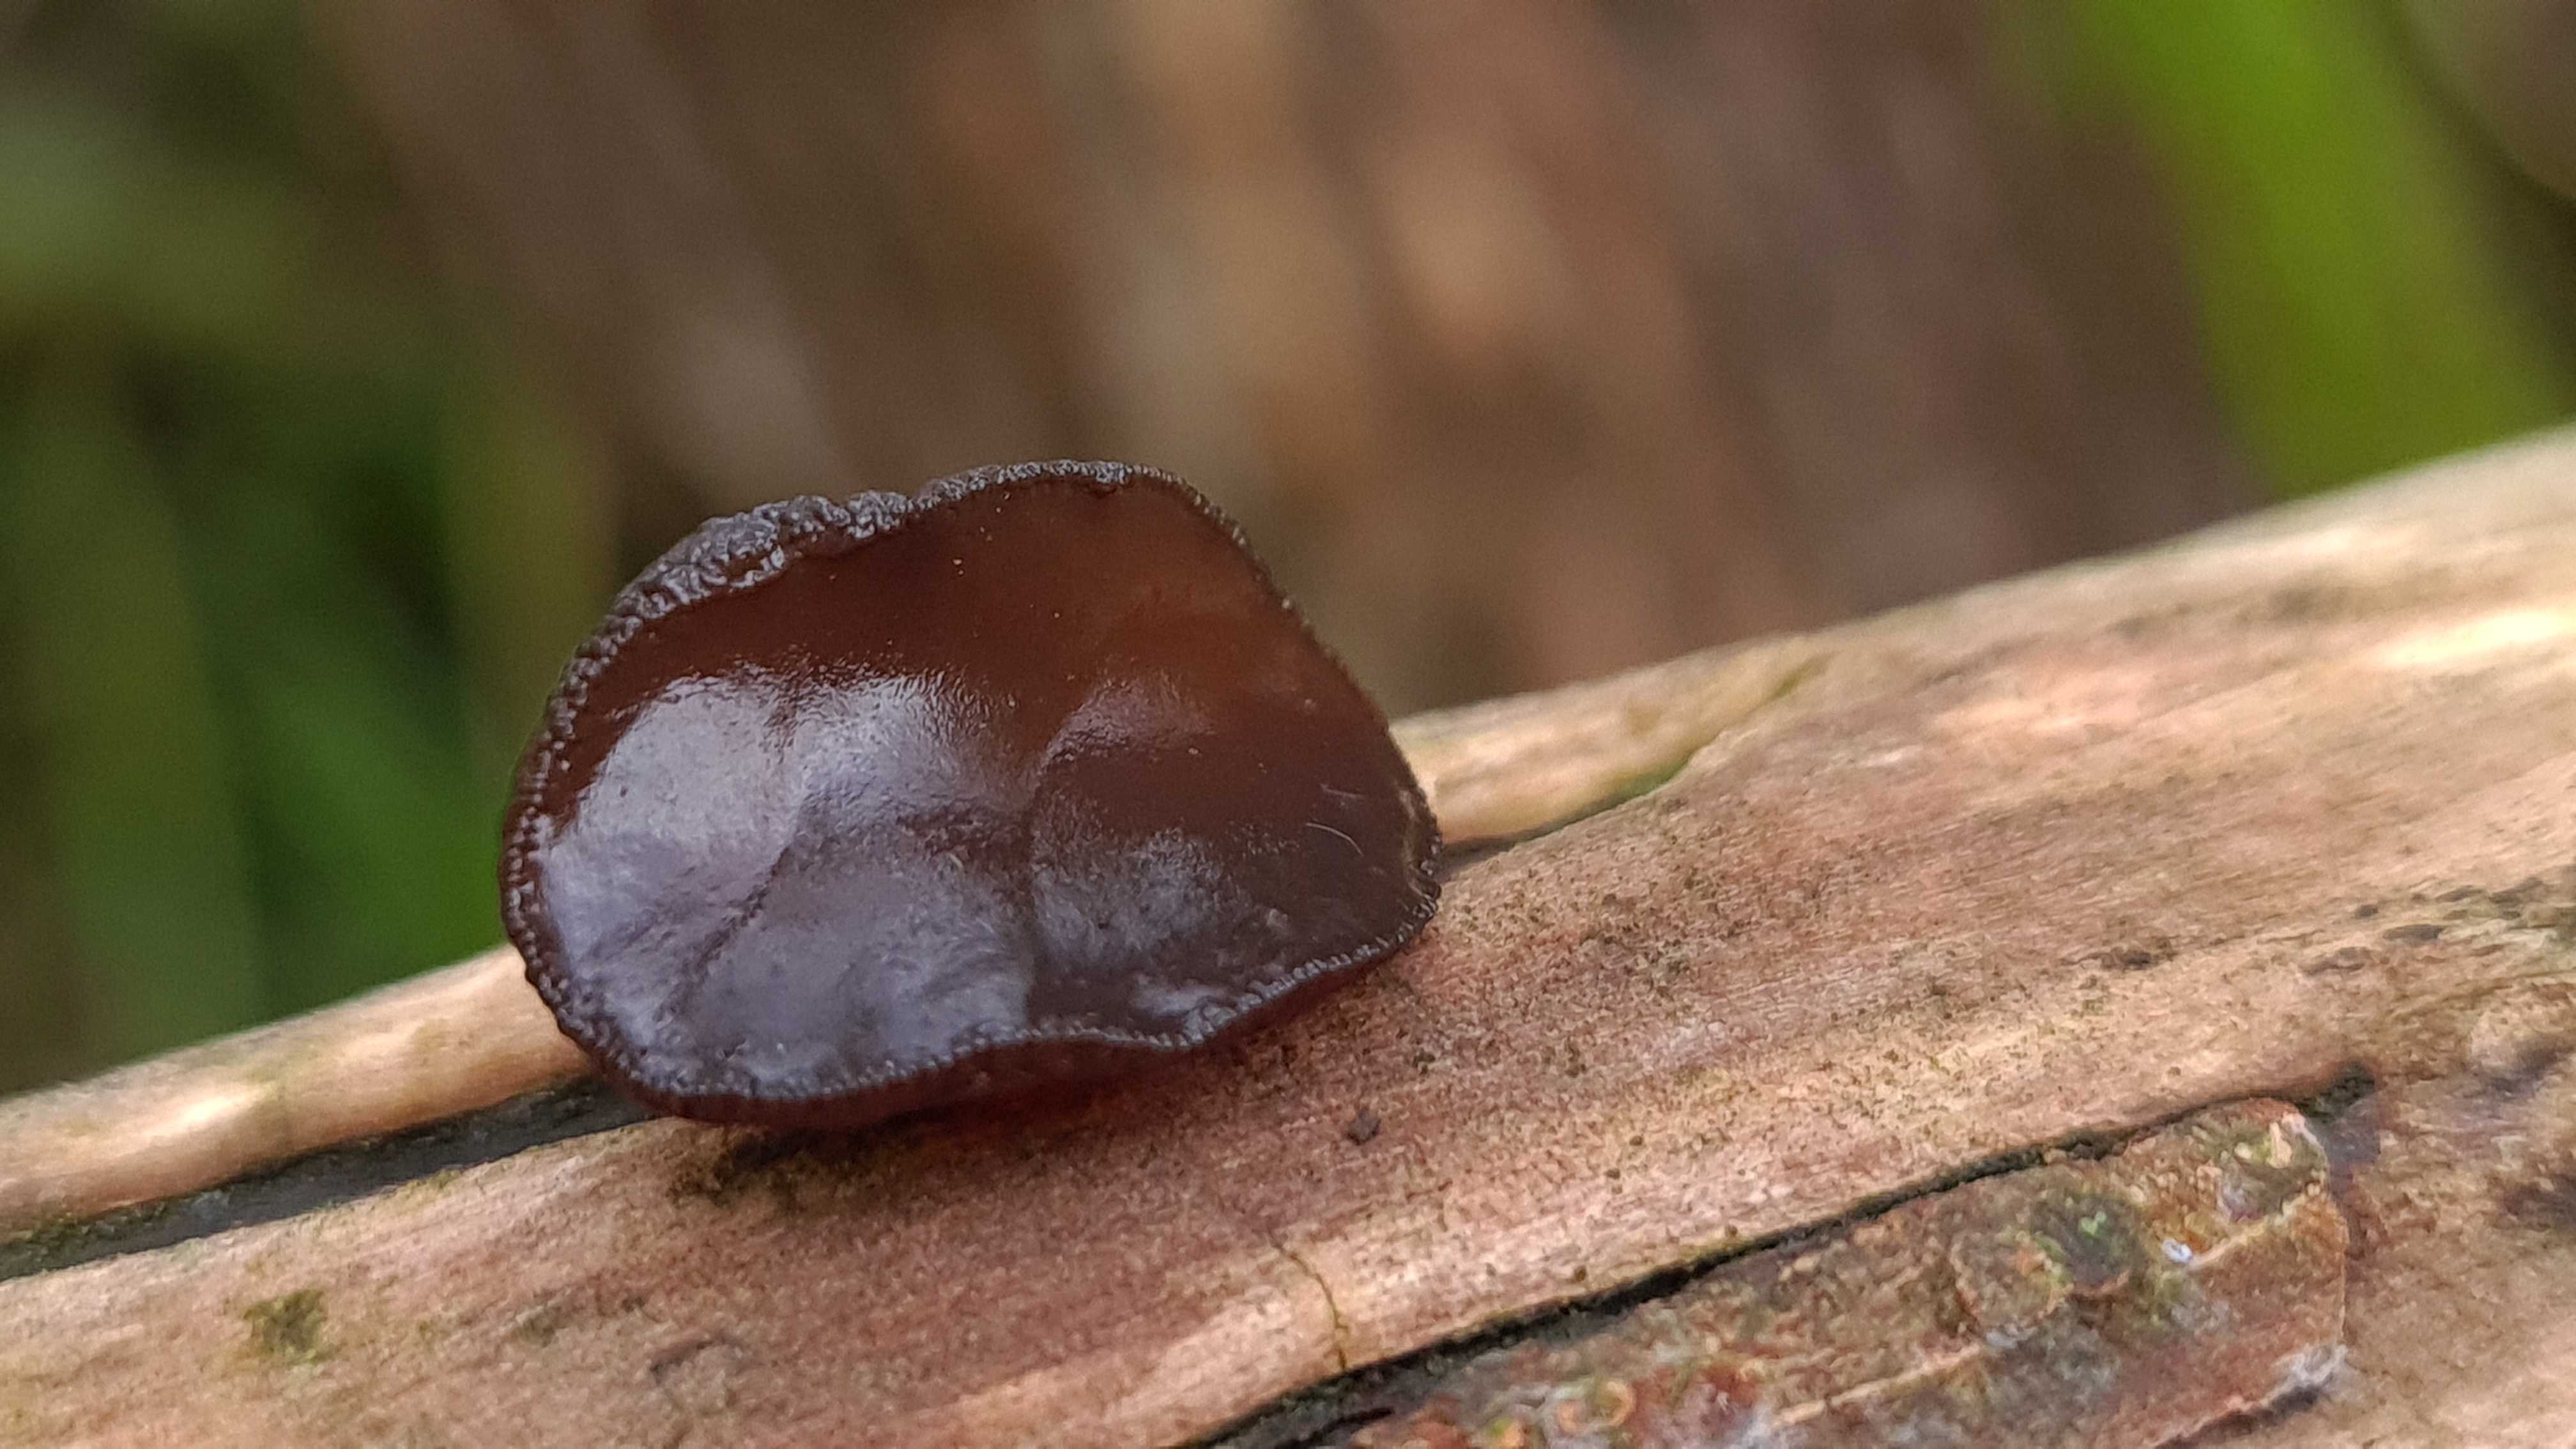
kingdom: Fungi
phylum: Basidiomycota
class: Agaricomycetes
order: Auriculariales
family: Auriculariaceae
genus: Exidia
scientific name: Exidia recisa
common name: pile-bævretop
